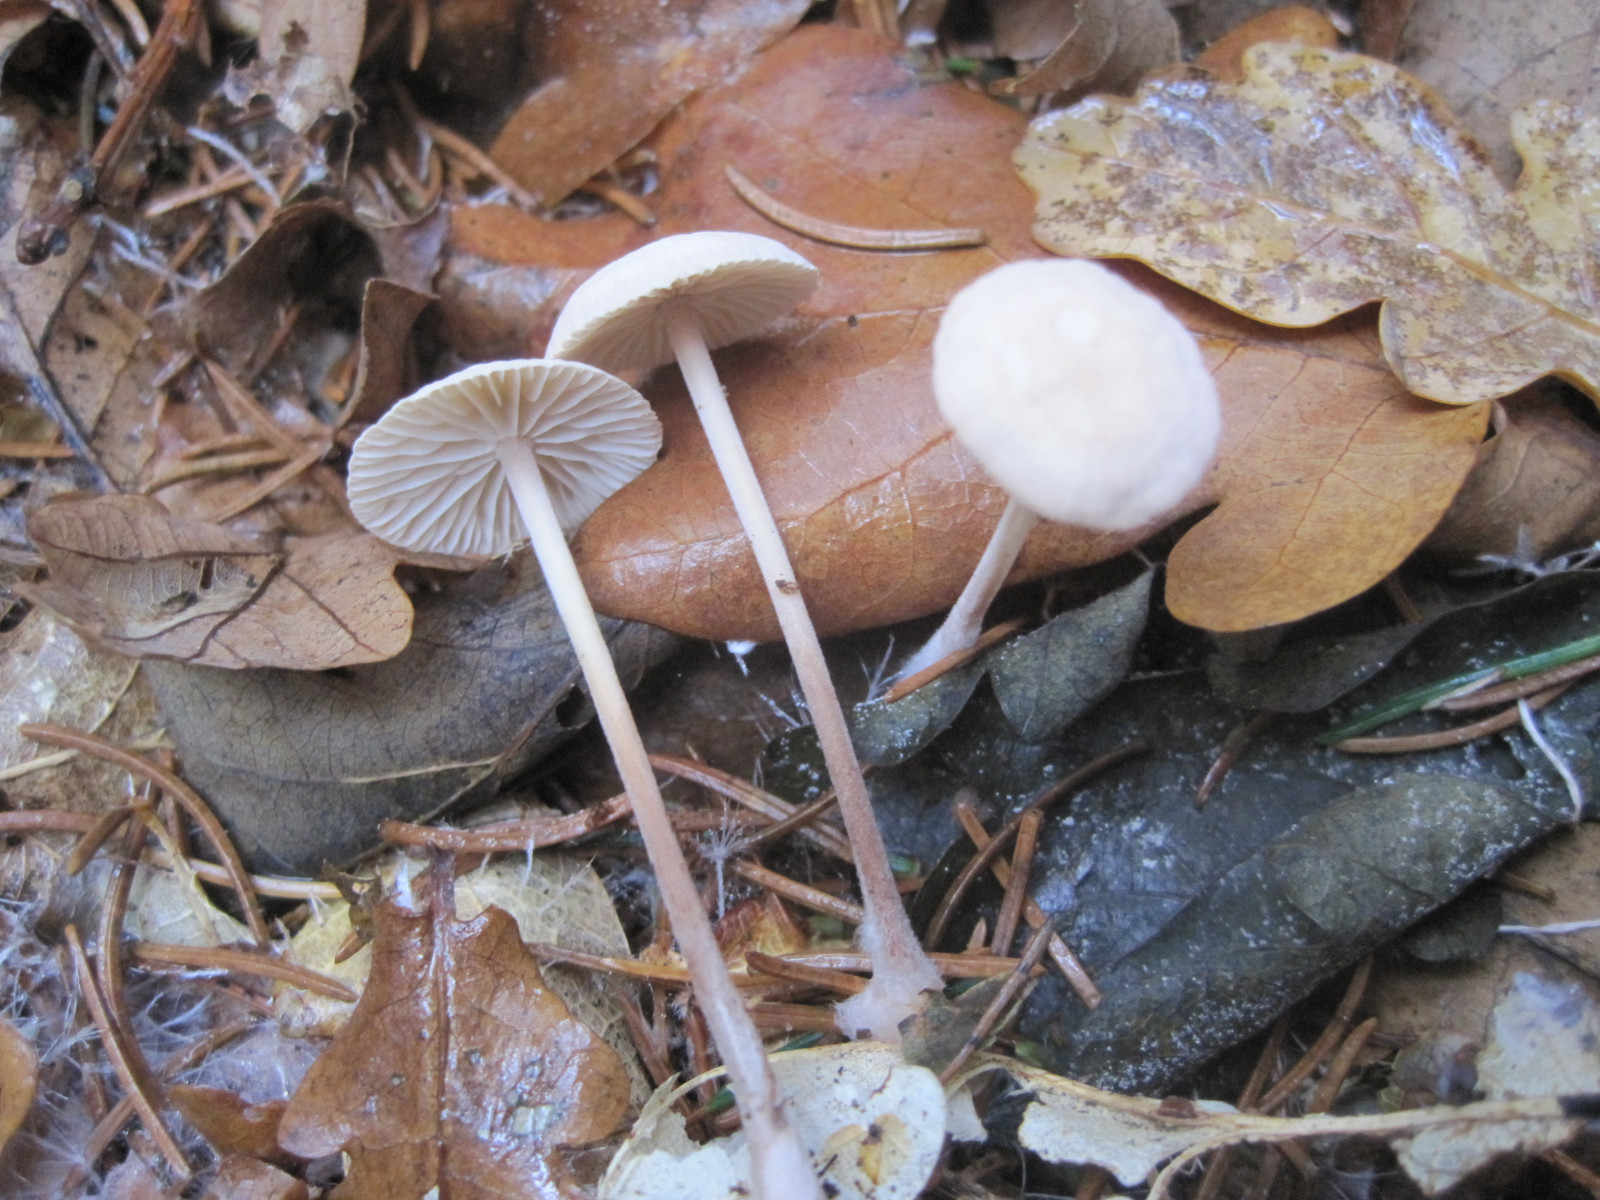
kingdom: Fungi
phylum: Basidiomycota
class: Agaricomycetes
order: Agaricales
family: Omphalotaceae
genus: Mycetinis
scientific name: Mycetinis querceus
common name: ege-løghat
